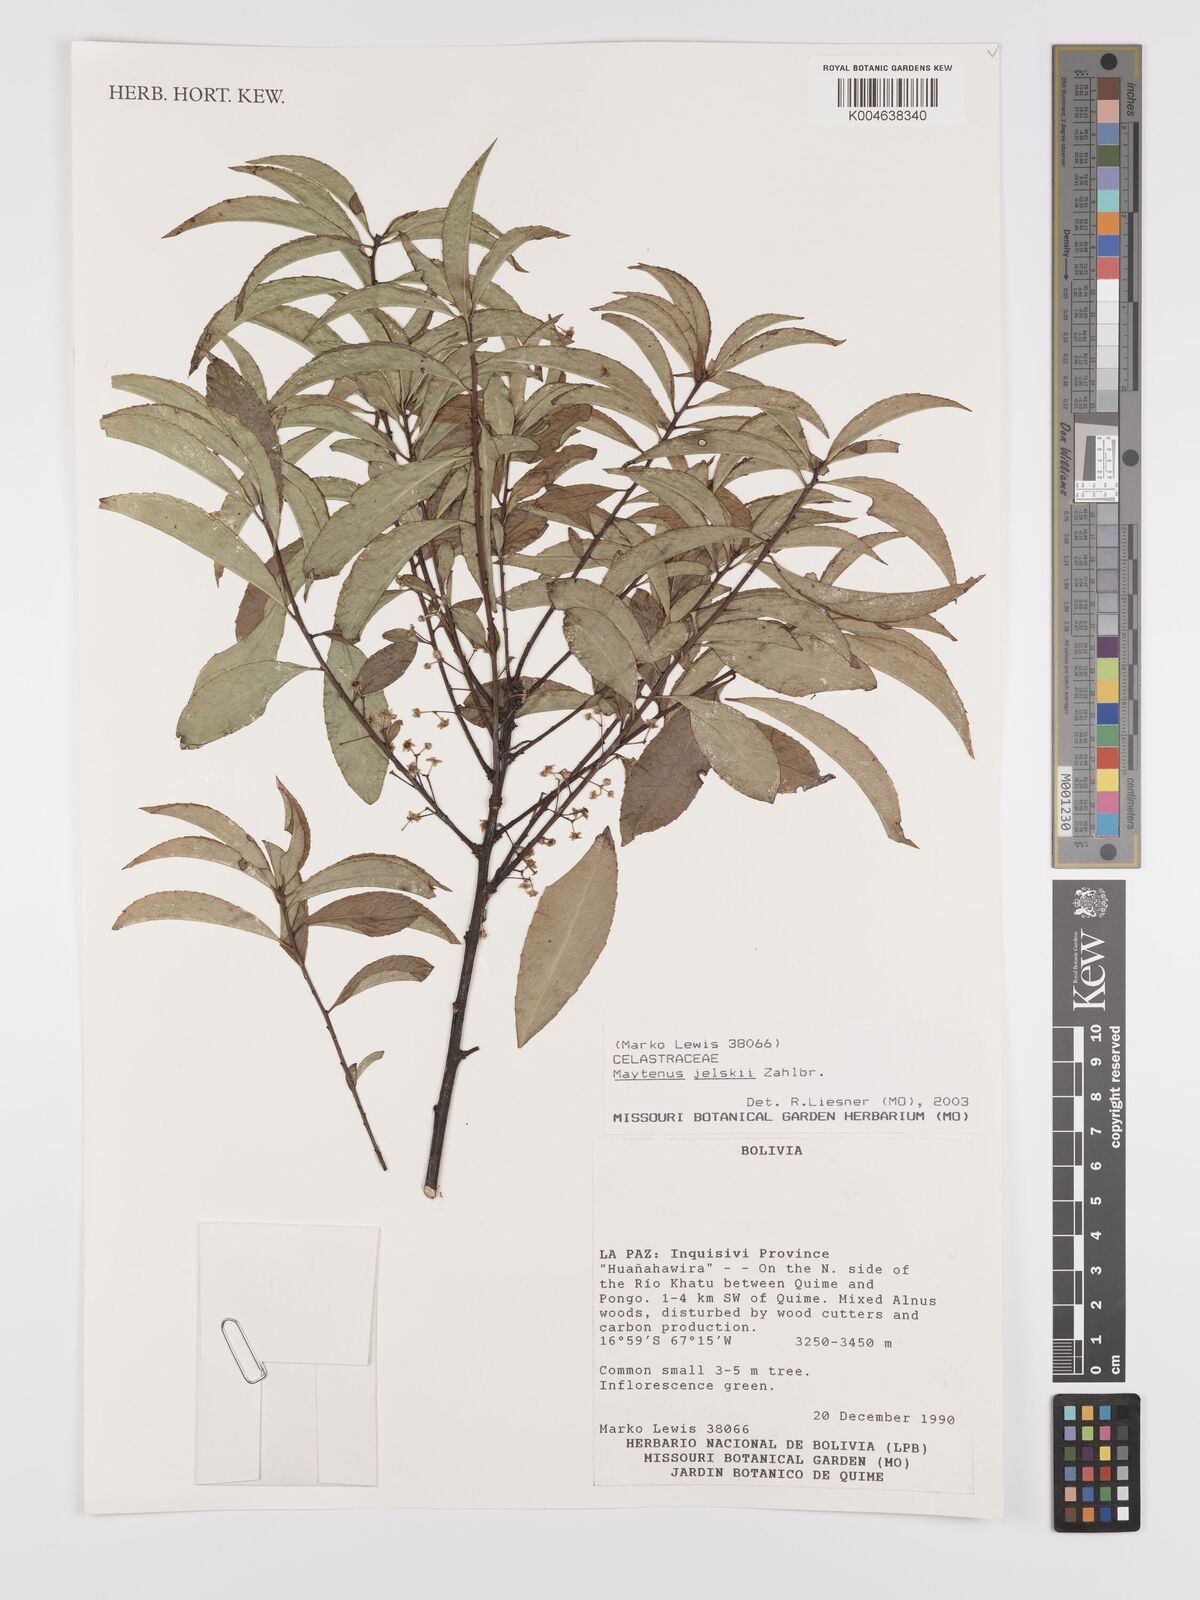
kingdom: Plantae
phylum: Tracheophyta
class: Magnoliopsida
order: Celastrales
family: Celastraceae
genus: Maytenus
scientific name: Maytenus
